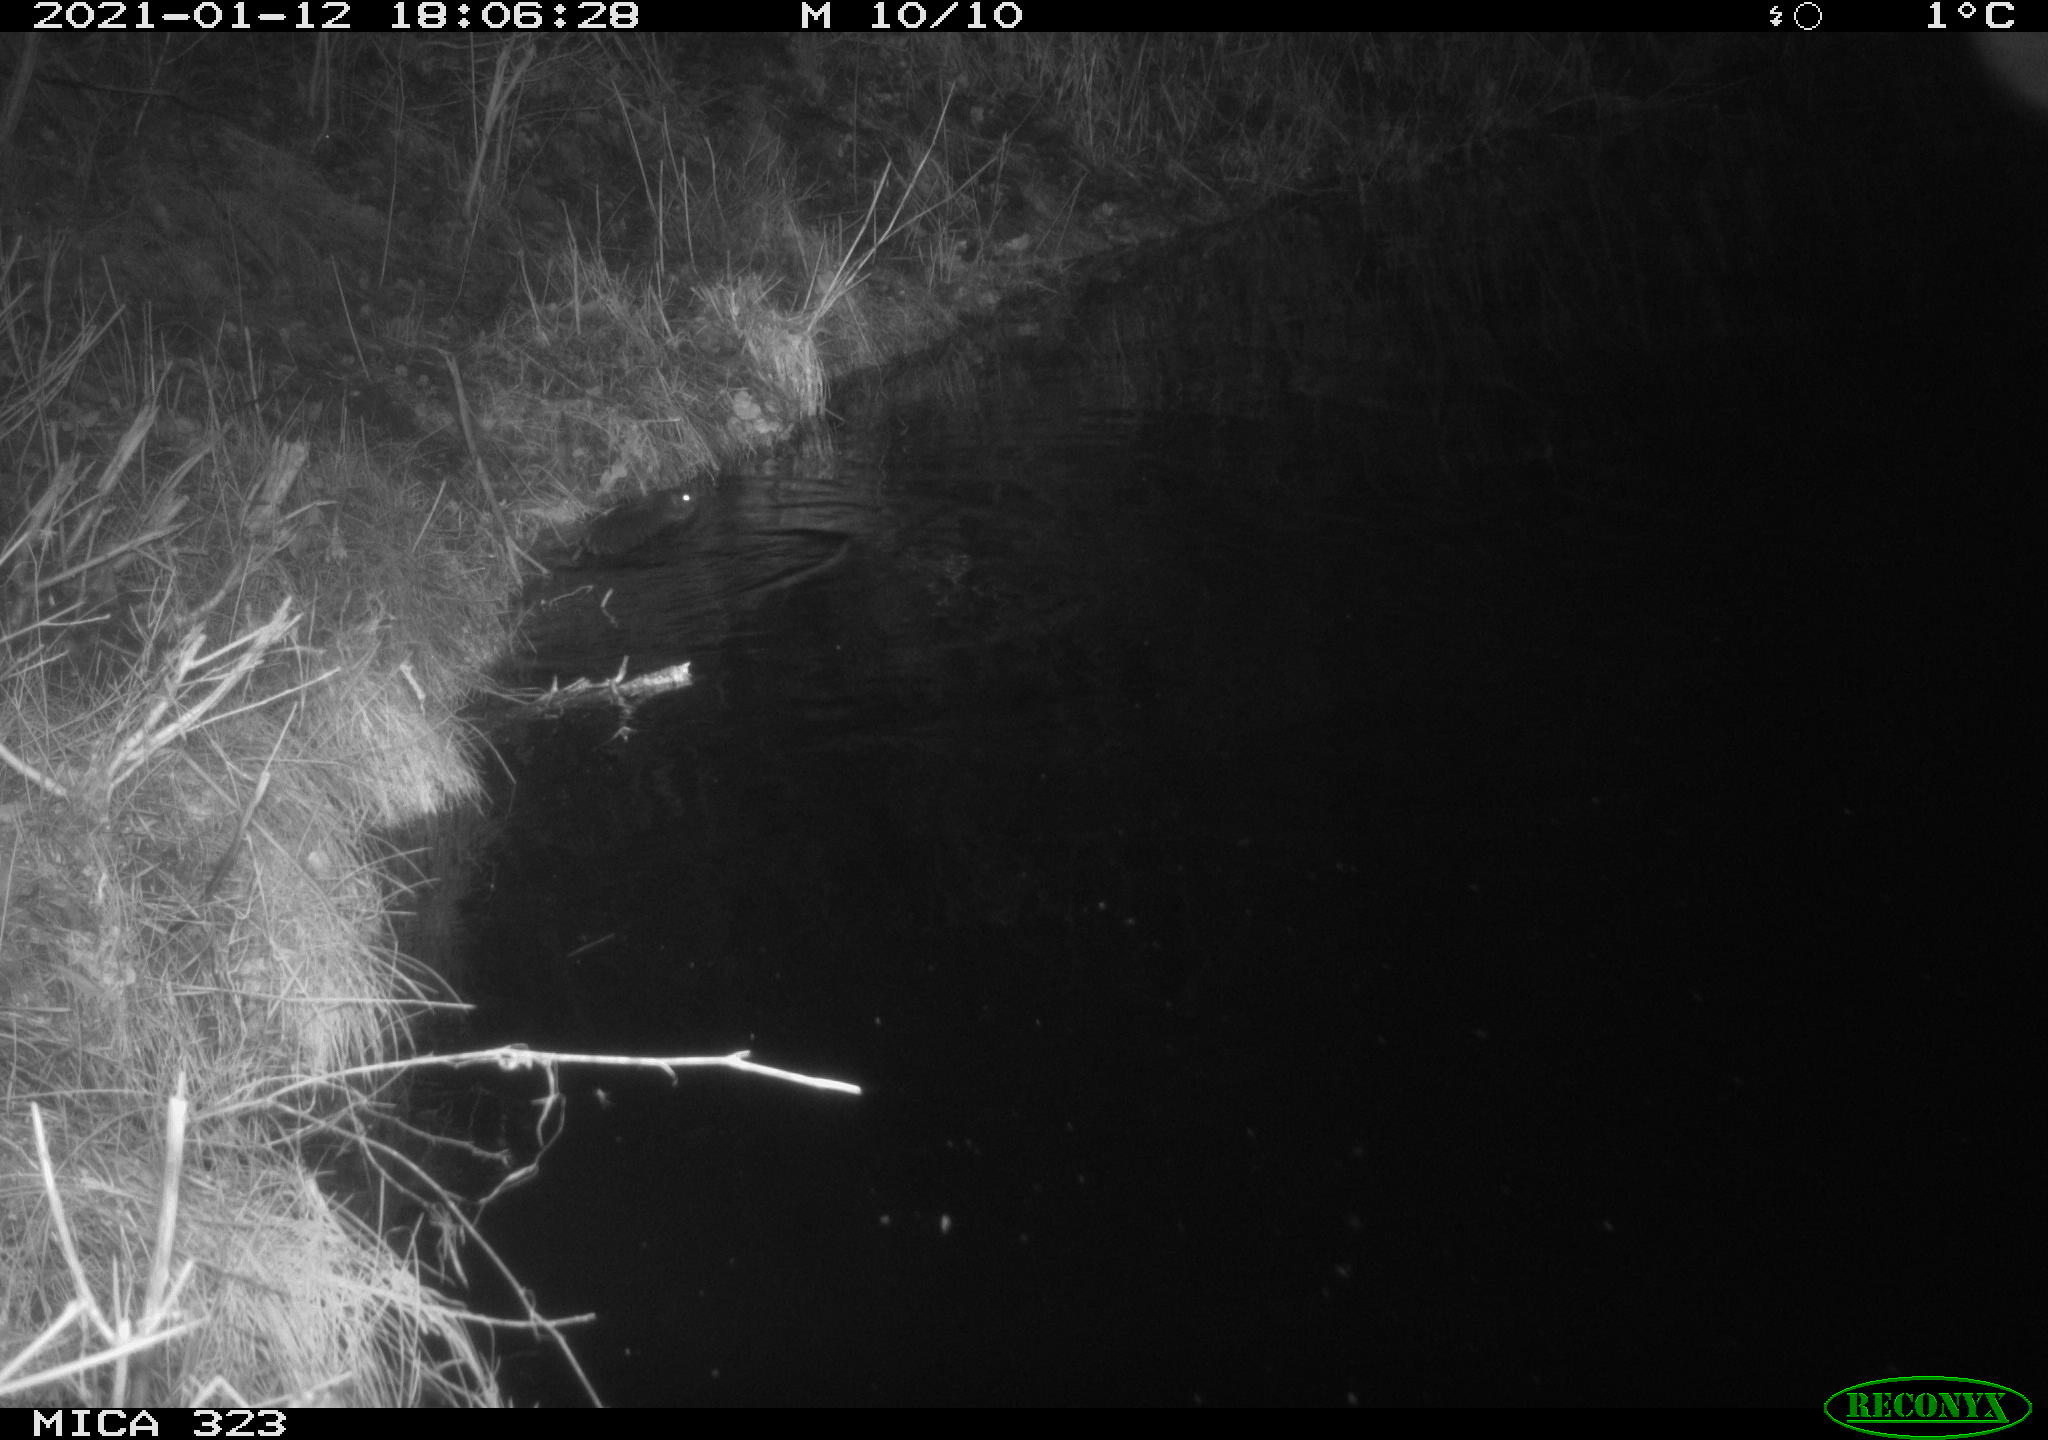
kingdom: Animalia
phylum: Chordata
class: Mammalia
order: Rodentia
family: Myocastoridae
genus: Myocastor
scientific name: Myocastor coypus
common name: Coypu
